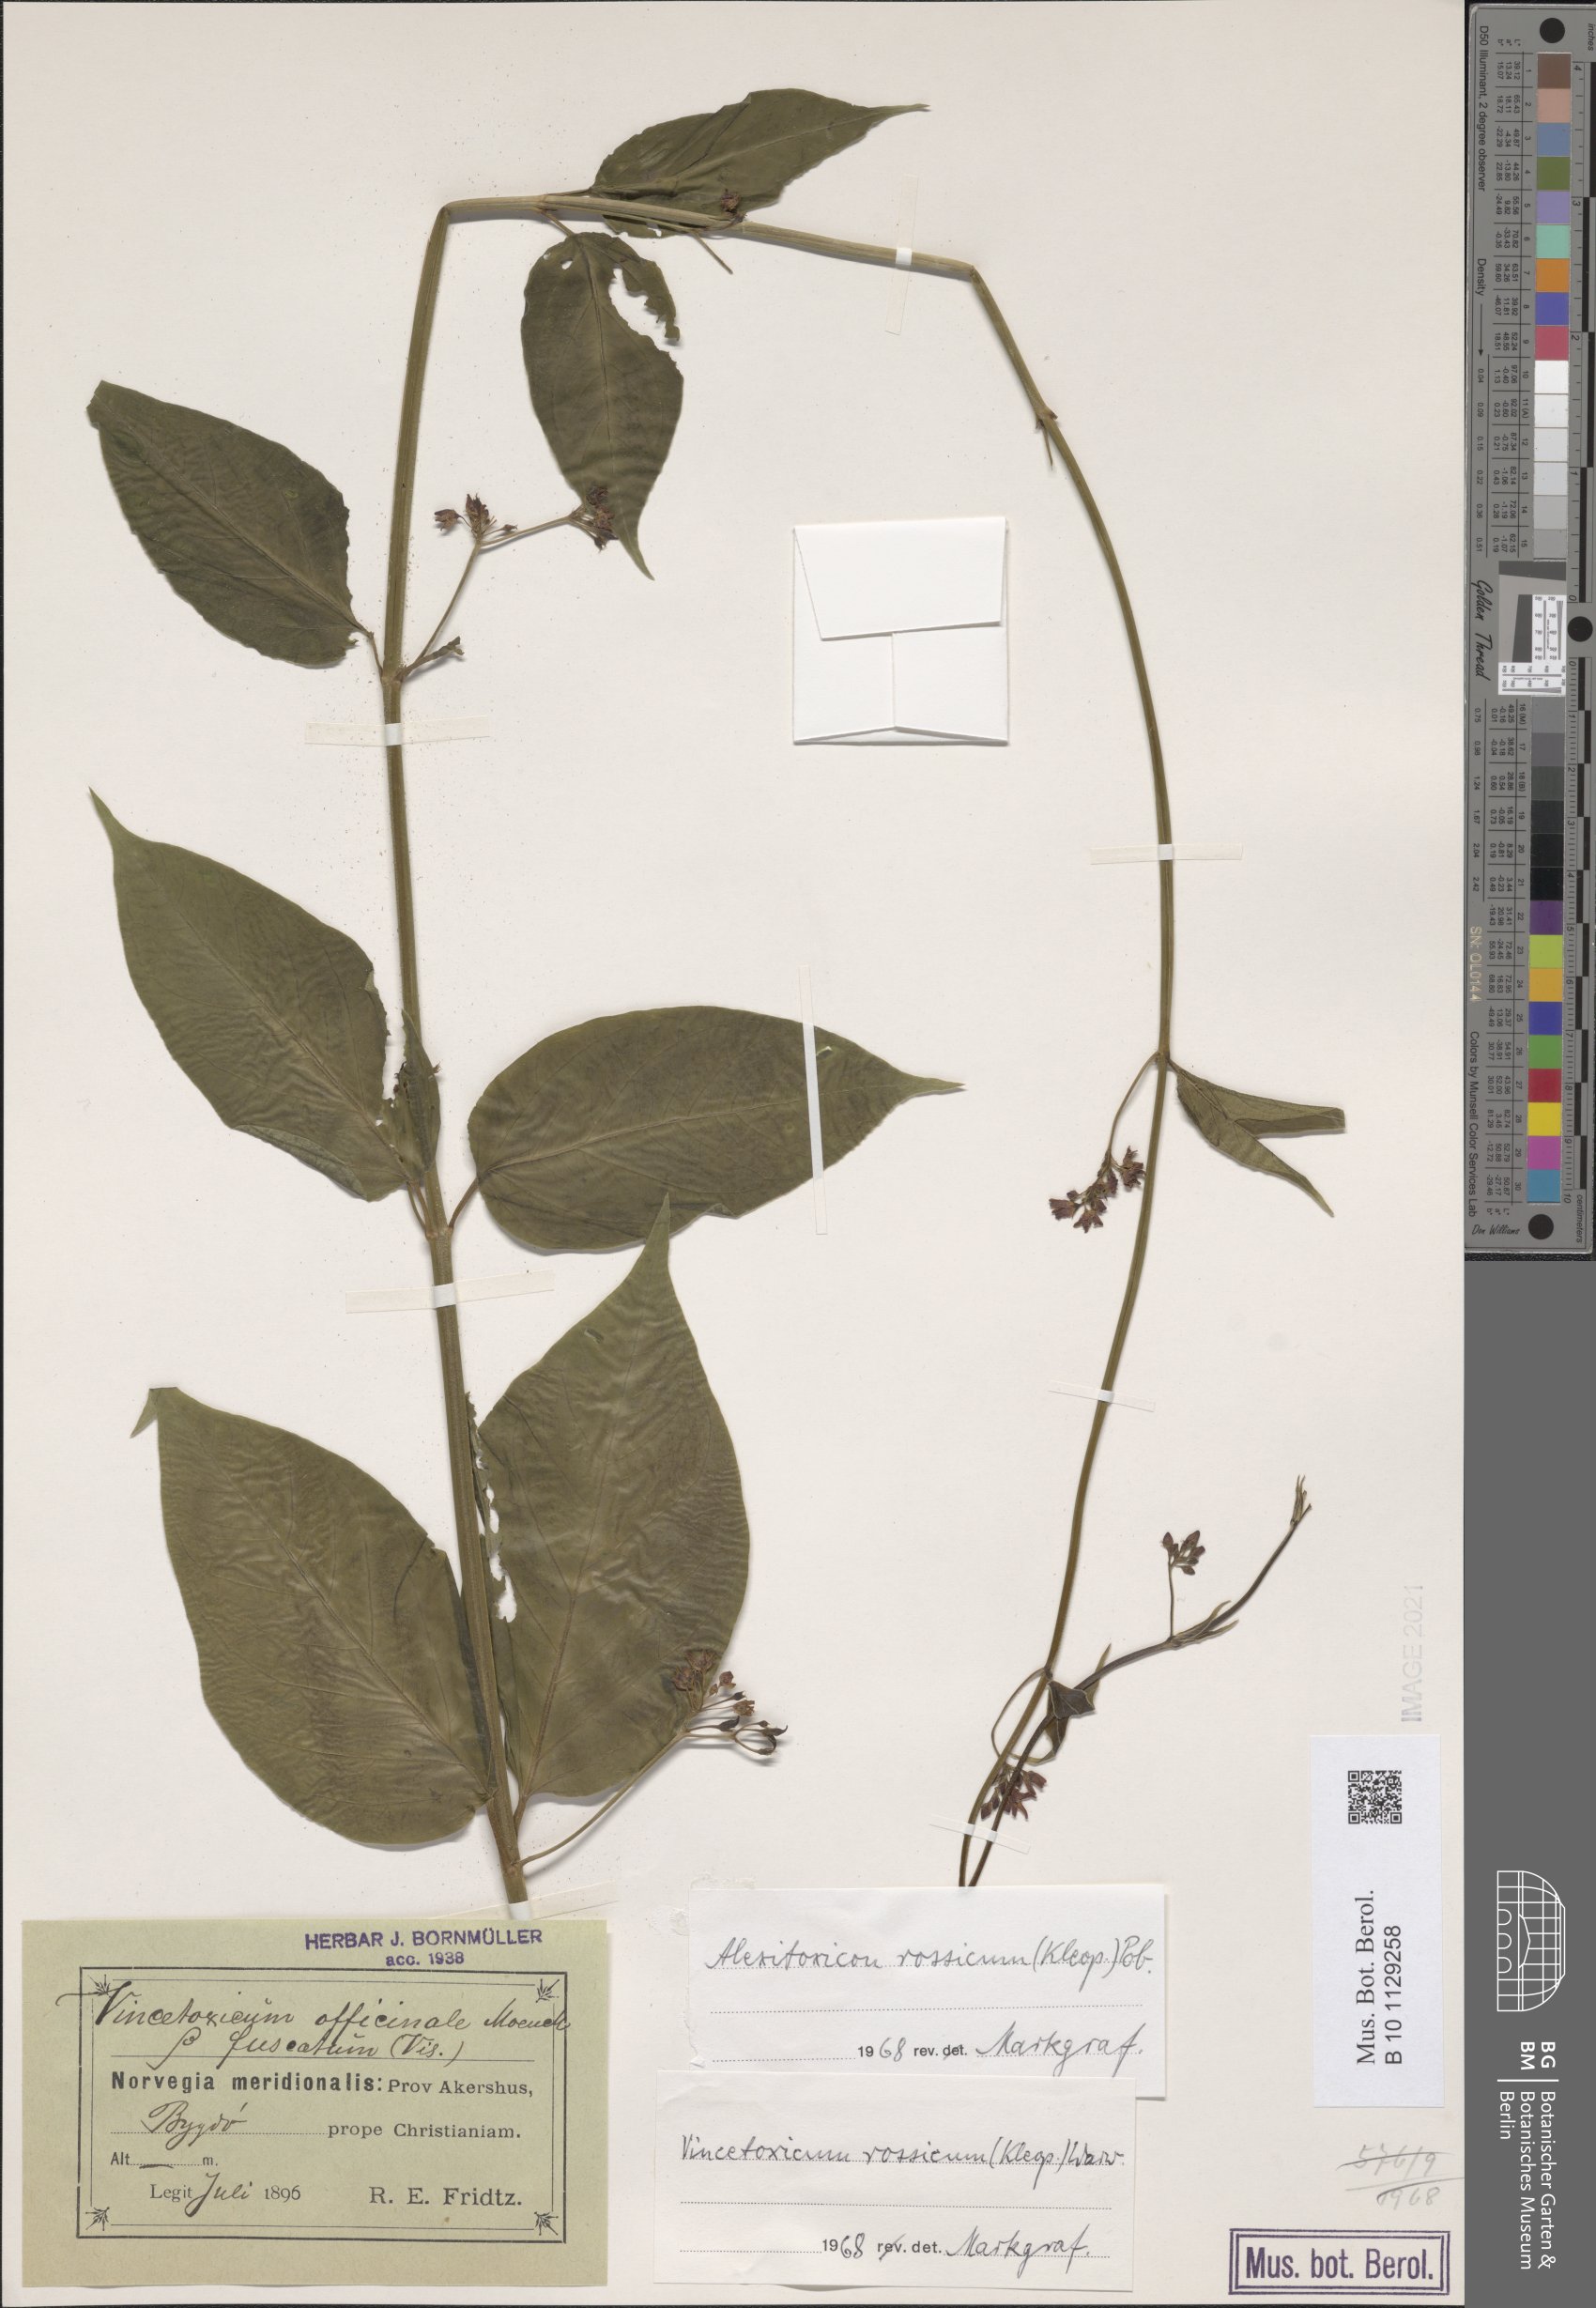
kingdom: Plantae
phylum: Tracheophyta
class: Magnoliopsida
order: Gentianales
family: Apocynaceae
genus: Vincetoxicum
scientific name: Vincetoxicum rossicum
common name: Dog-strangling vine
